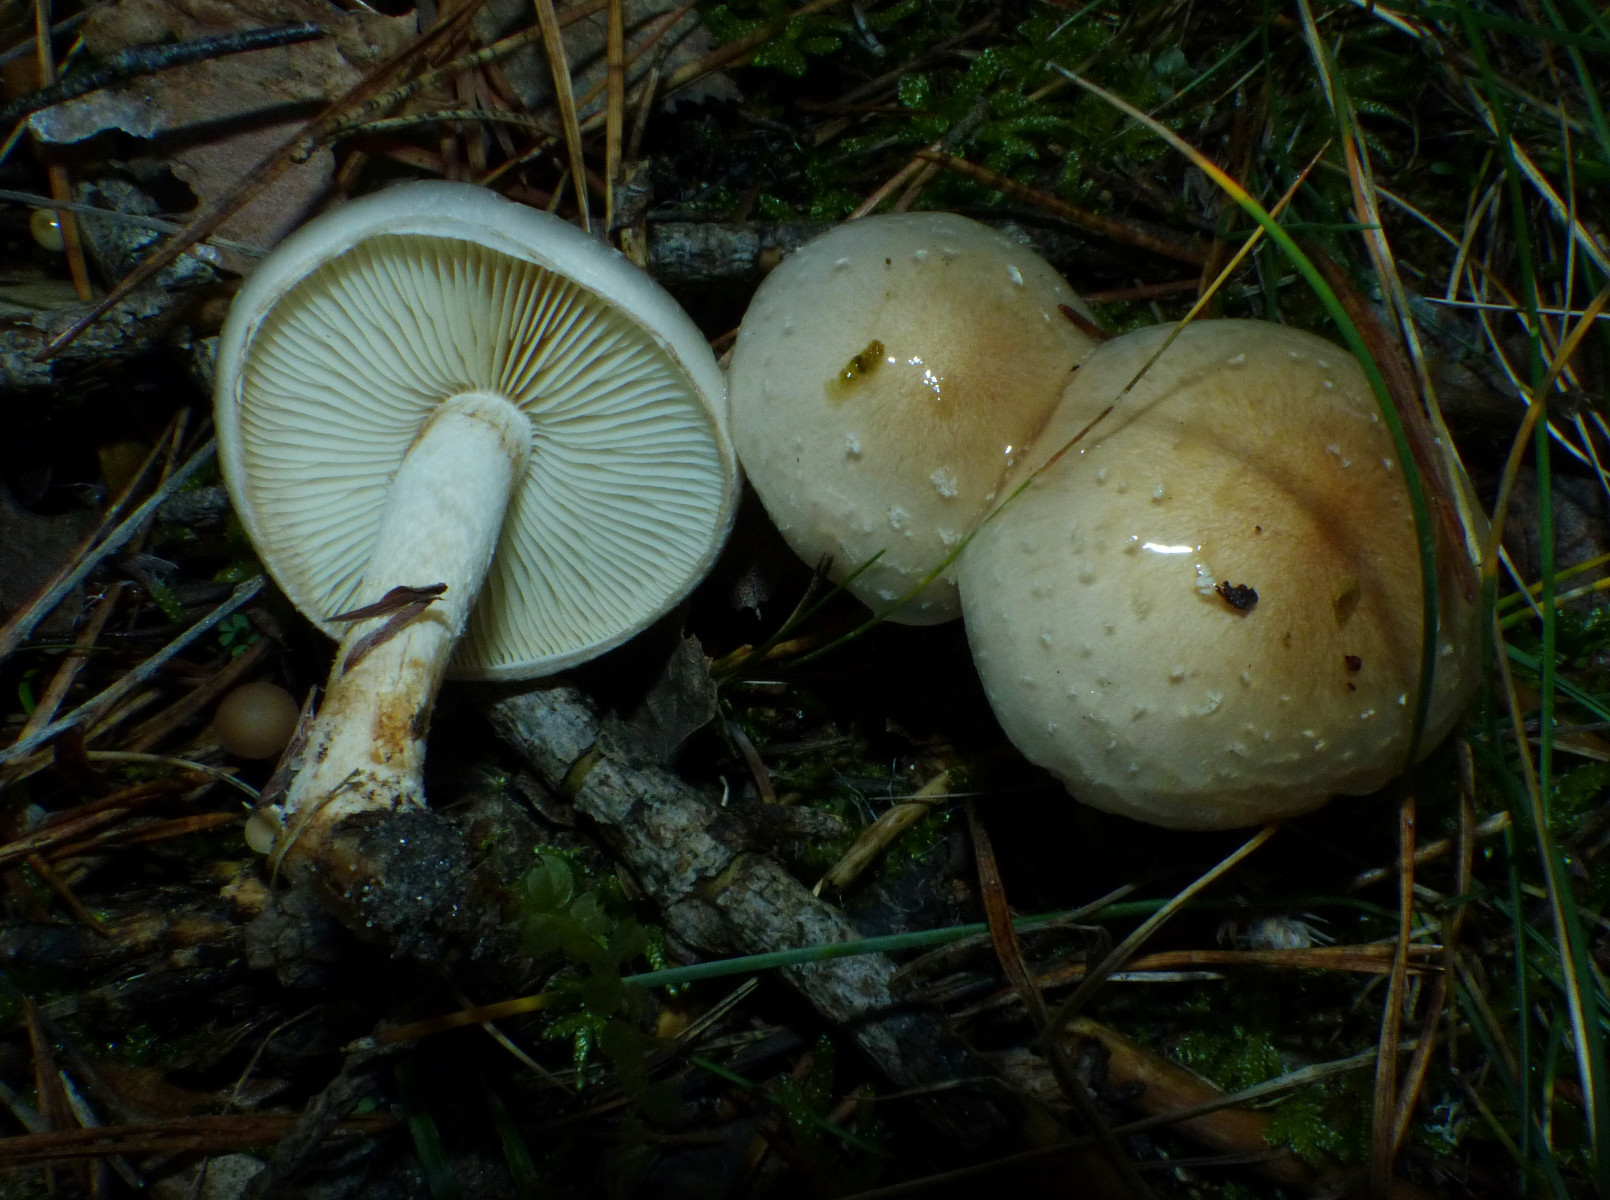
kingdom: Fungi
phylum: Basidiomycota
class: Agaricomycetes
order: Agaricales
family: Strophariaceae
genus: Pholiota
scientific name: Pholiota lenta
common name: løv-skælhat
